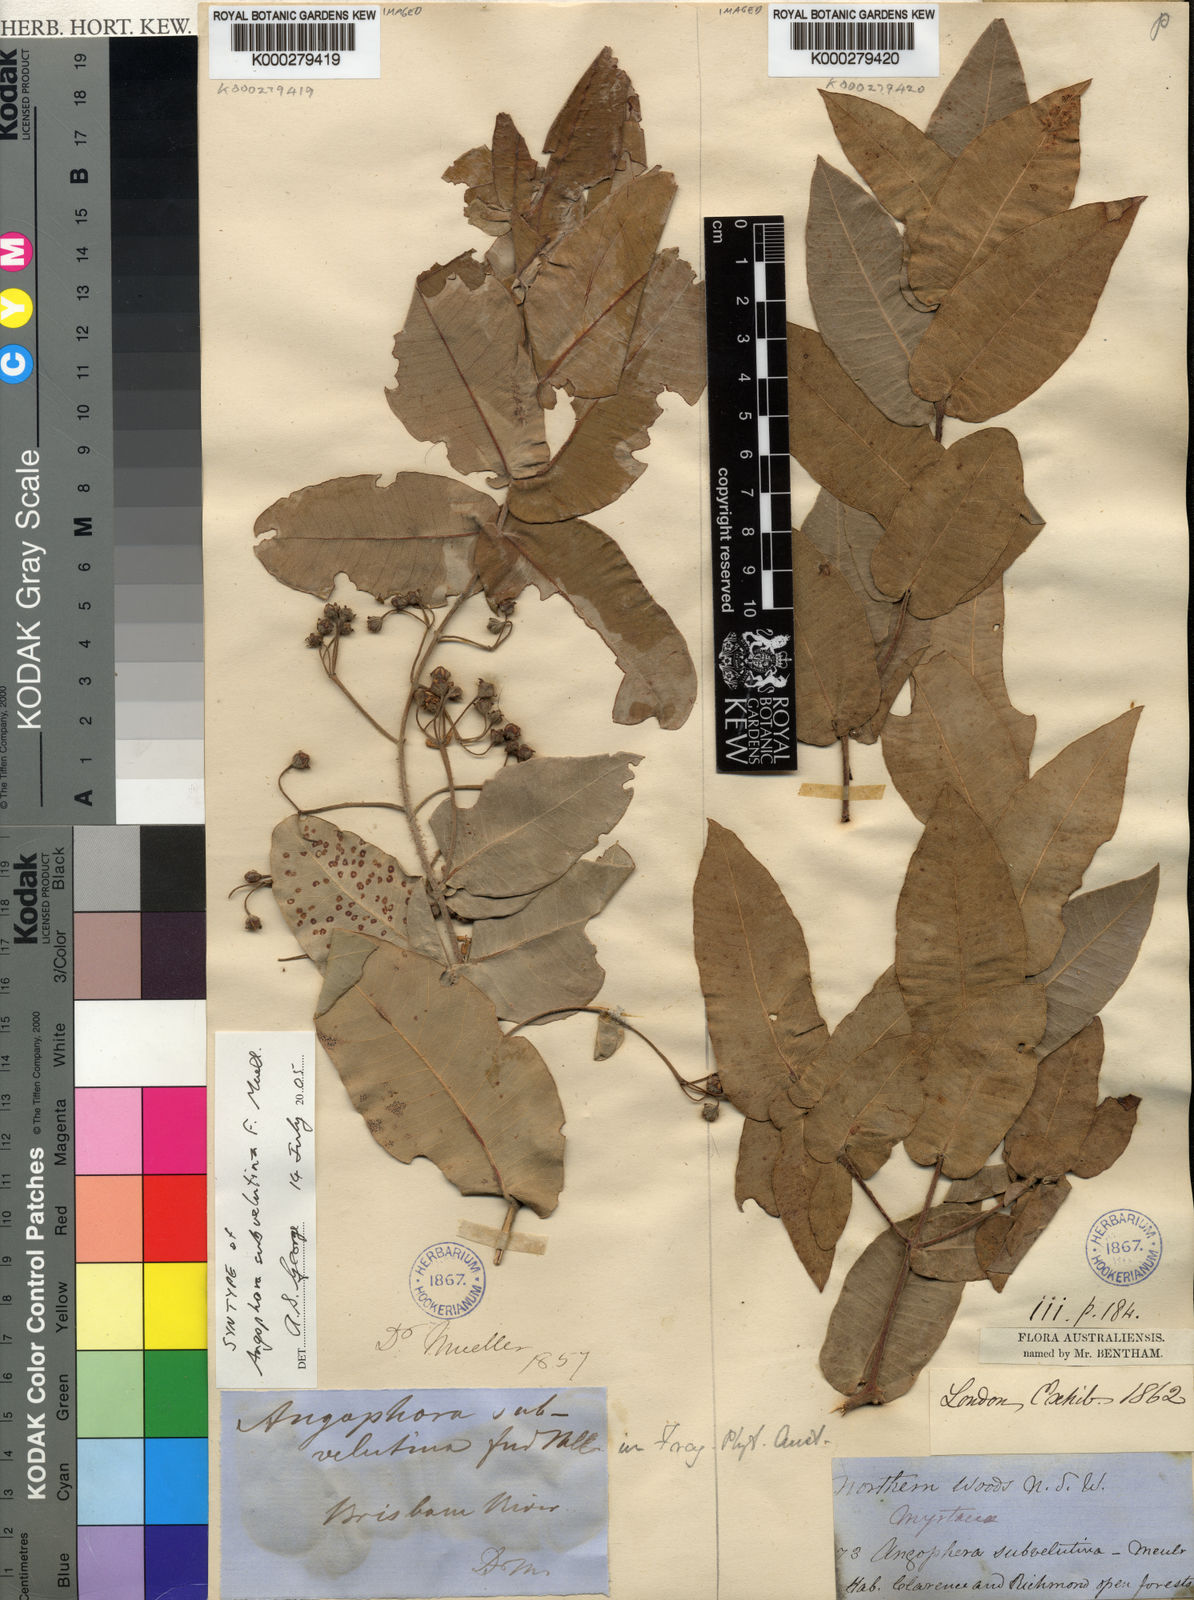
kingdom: Plantae
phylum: Tracheophyta
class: Magnoliopsida
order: Myrtales
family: Myrtaceae
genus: Angophora
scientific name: Angophora subvelutina
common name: Broad-leaved apple
